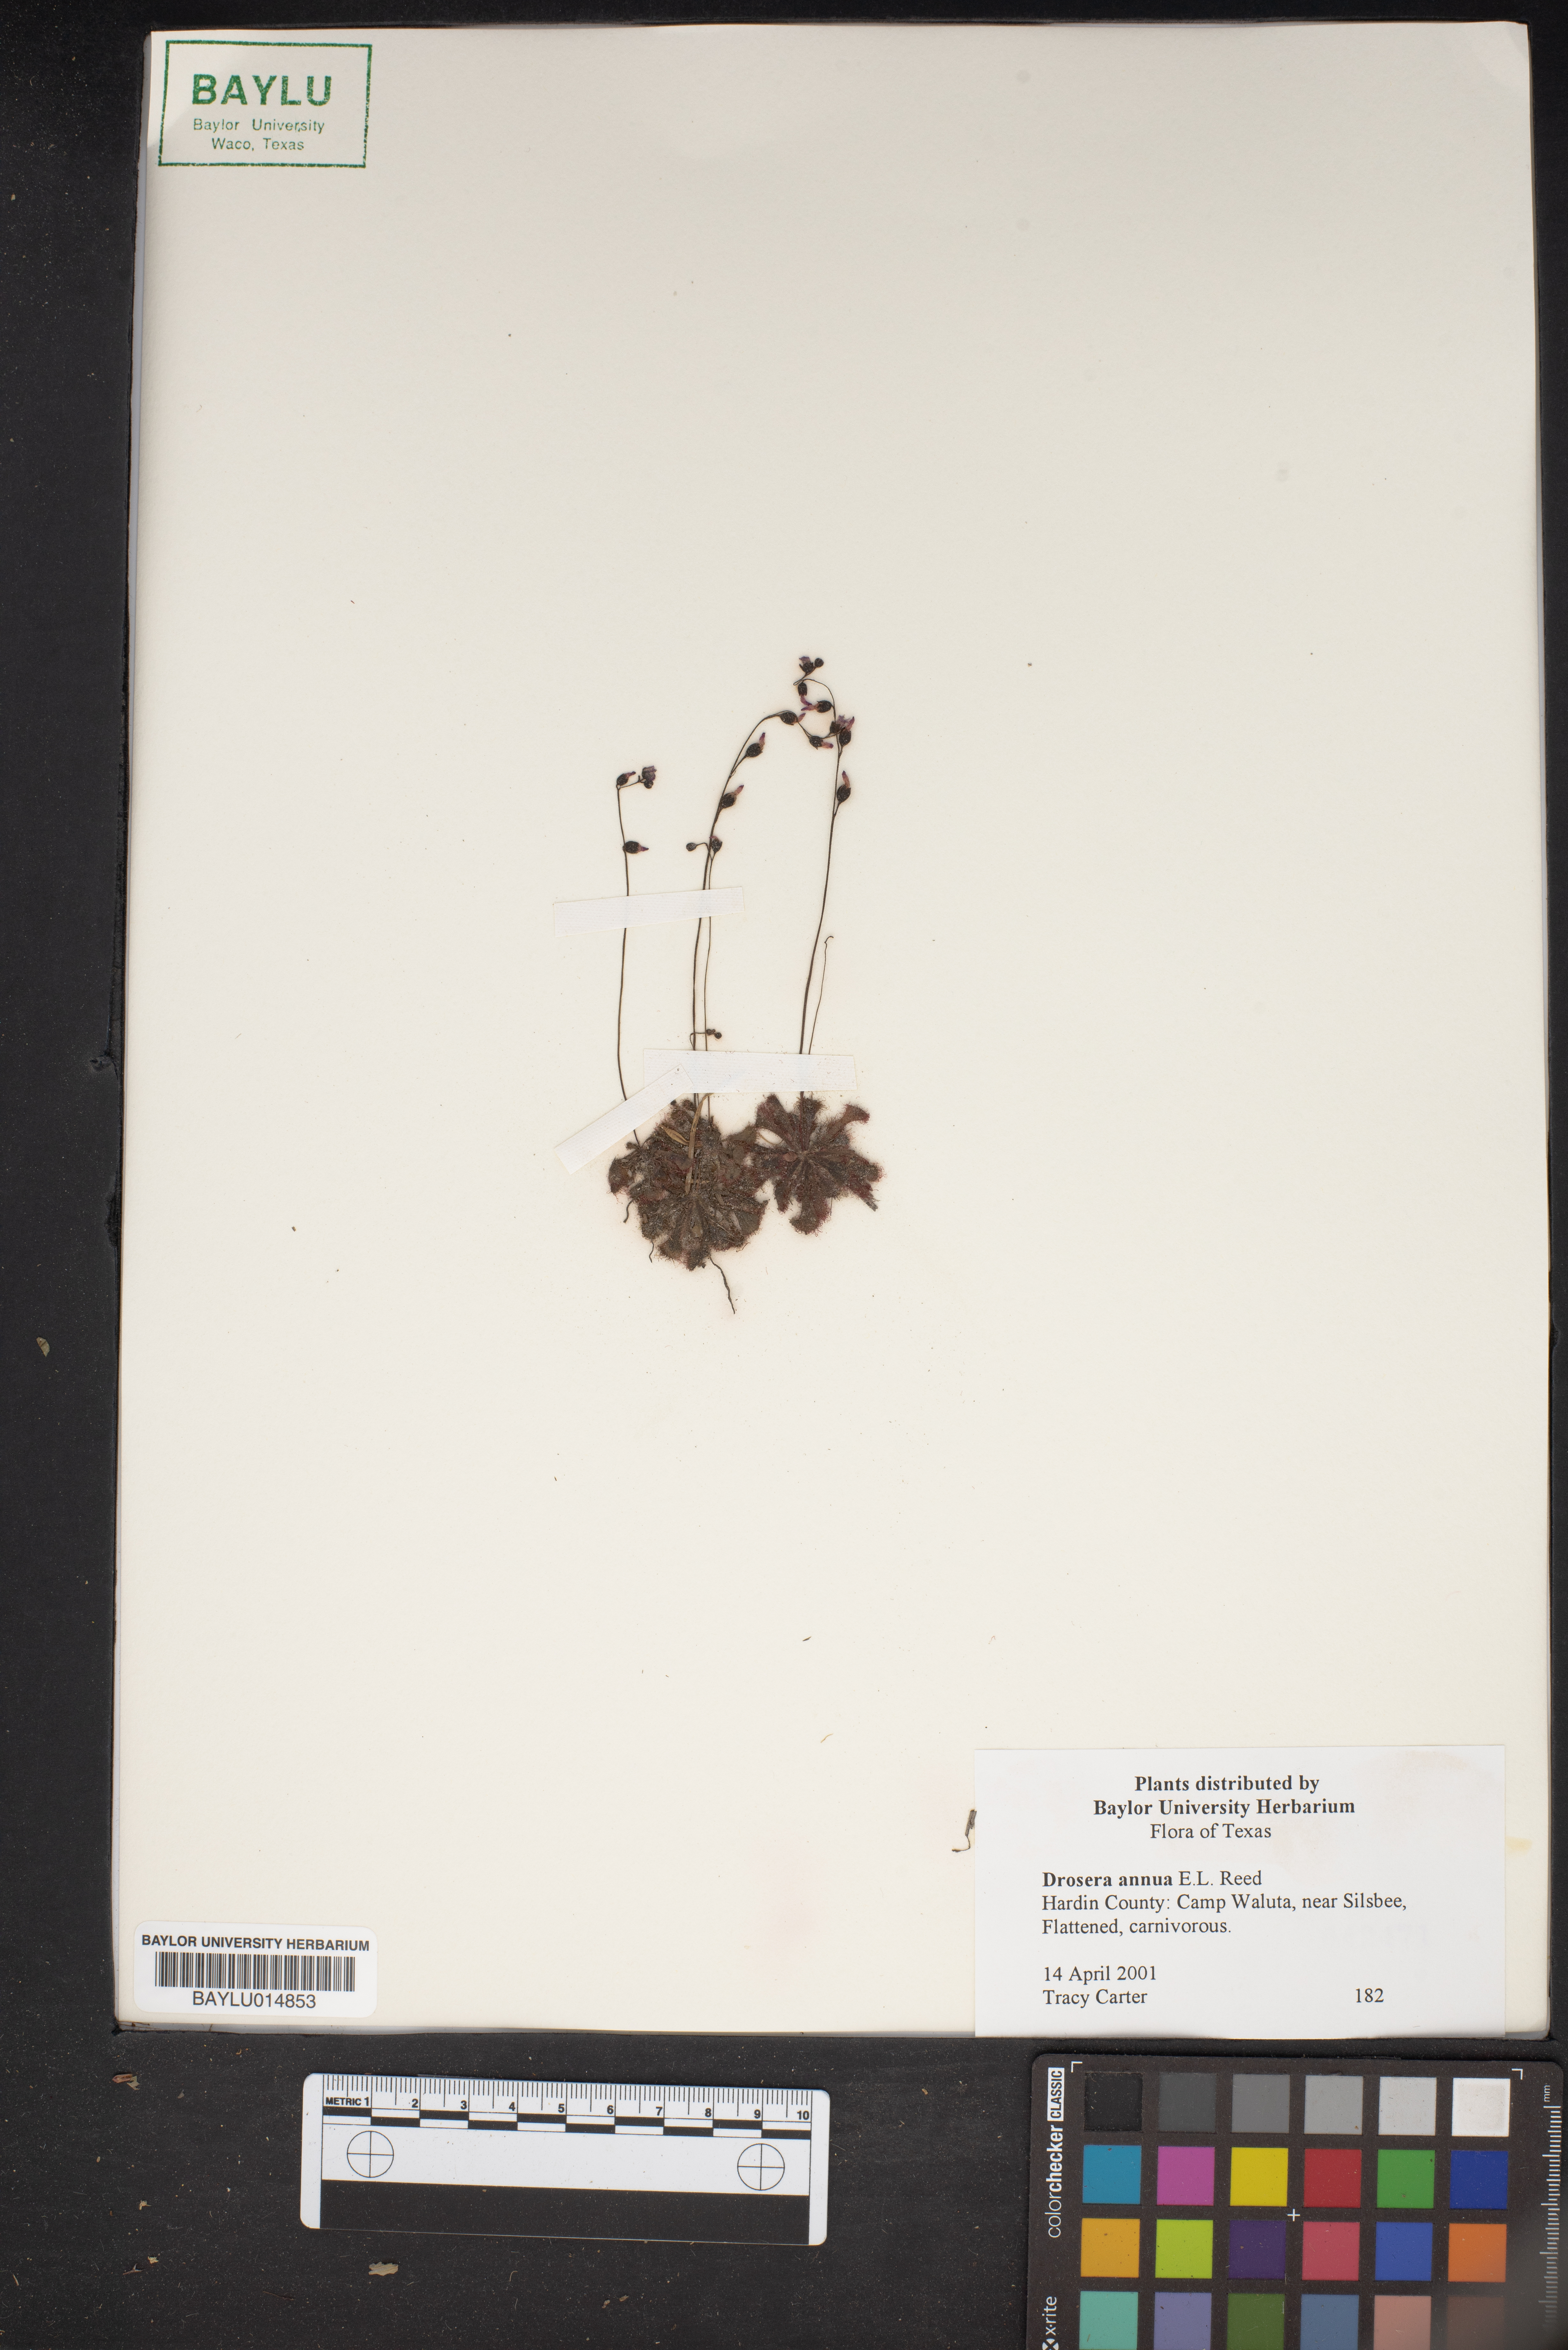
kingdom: Plantae
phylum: Tracheophyta
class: Magnoliopsida
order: Caryophyllales
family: Droseraceae
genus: Drosera
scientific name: Drosera brevifolia
